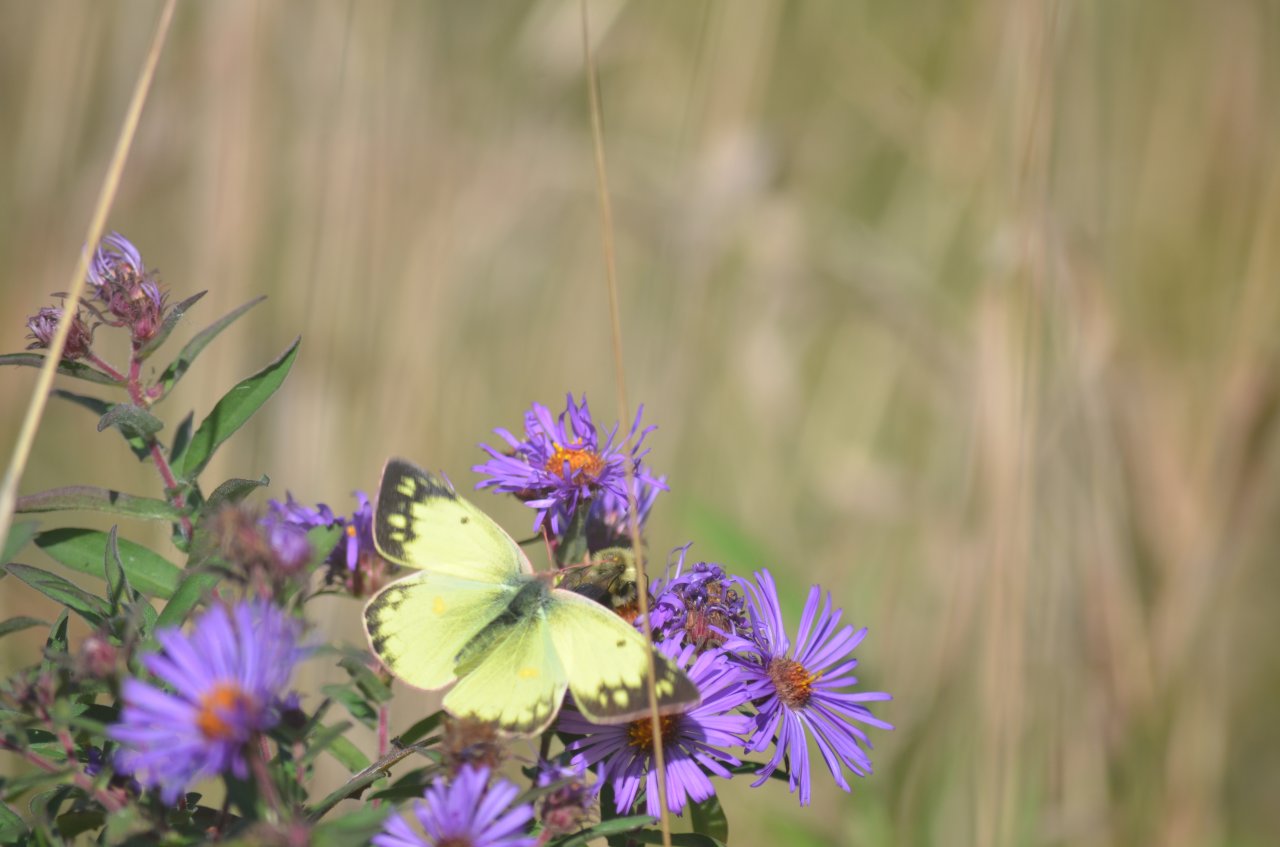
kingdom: Animalia
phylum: Arthropoda
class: Insecta
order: Lepidoptera
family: Pieridae
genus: Colias
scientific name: Colias philodice
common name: Clouded Sulphur
